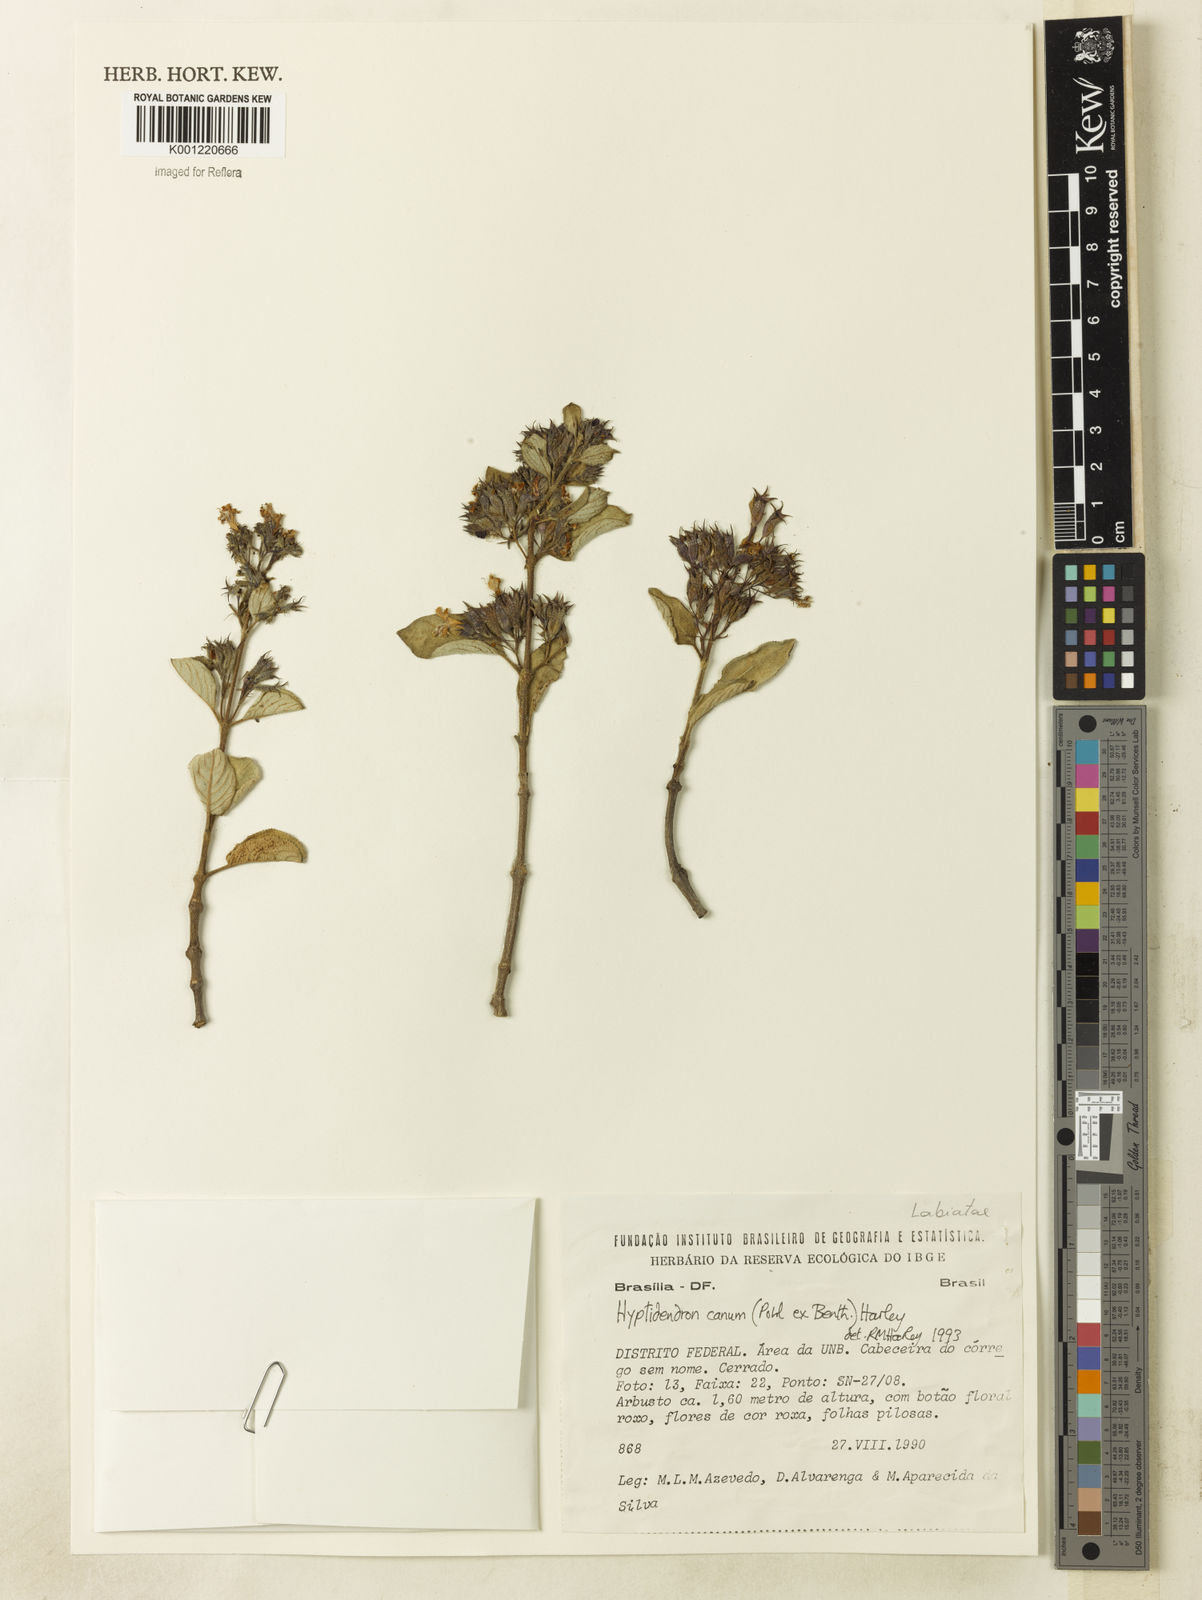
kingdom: Plantae
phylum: Tracheophyta
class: Magnoliopsida
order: Lamiales
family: Lamiaceae
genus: Hyptidendron
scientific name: Hyptidendron canum
